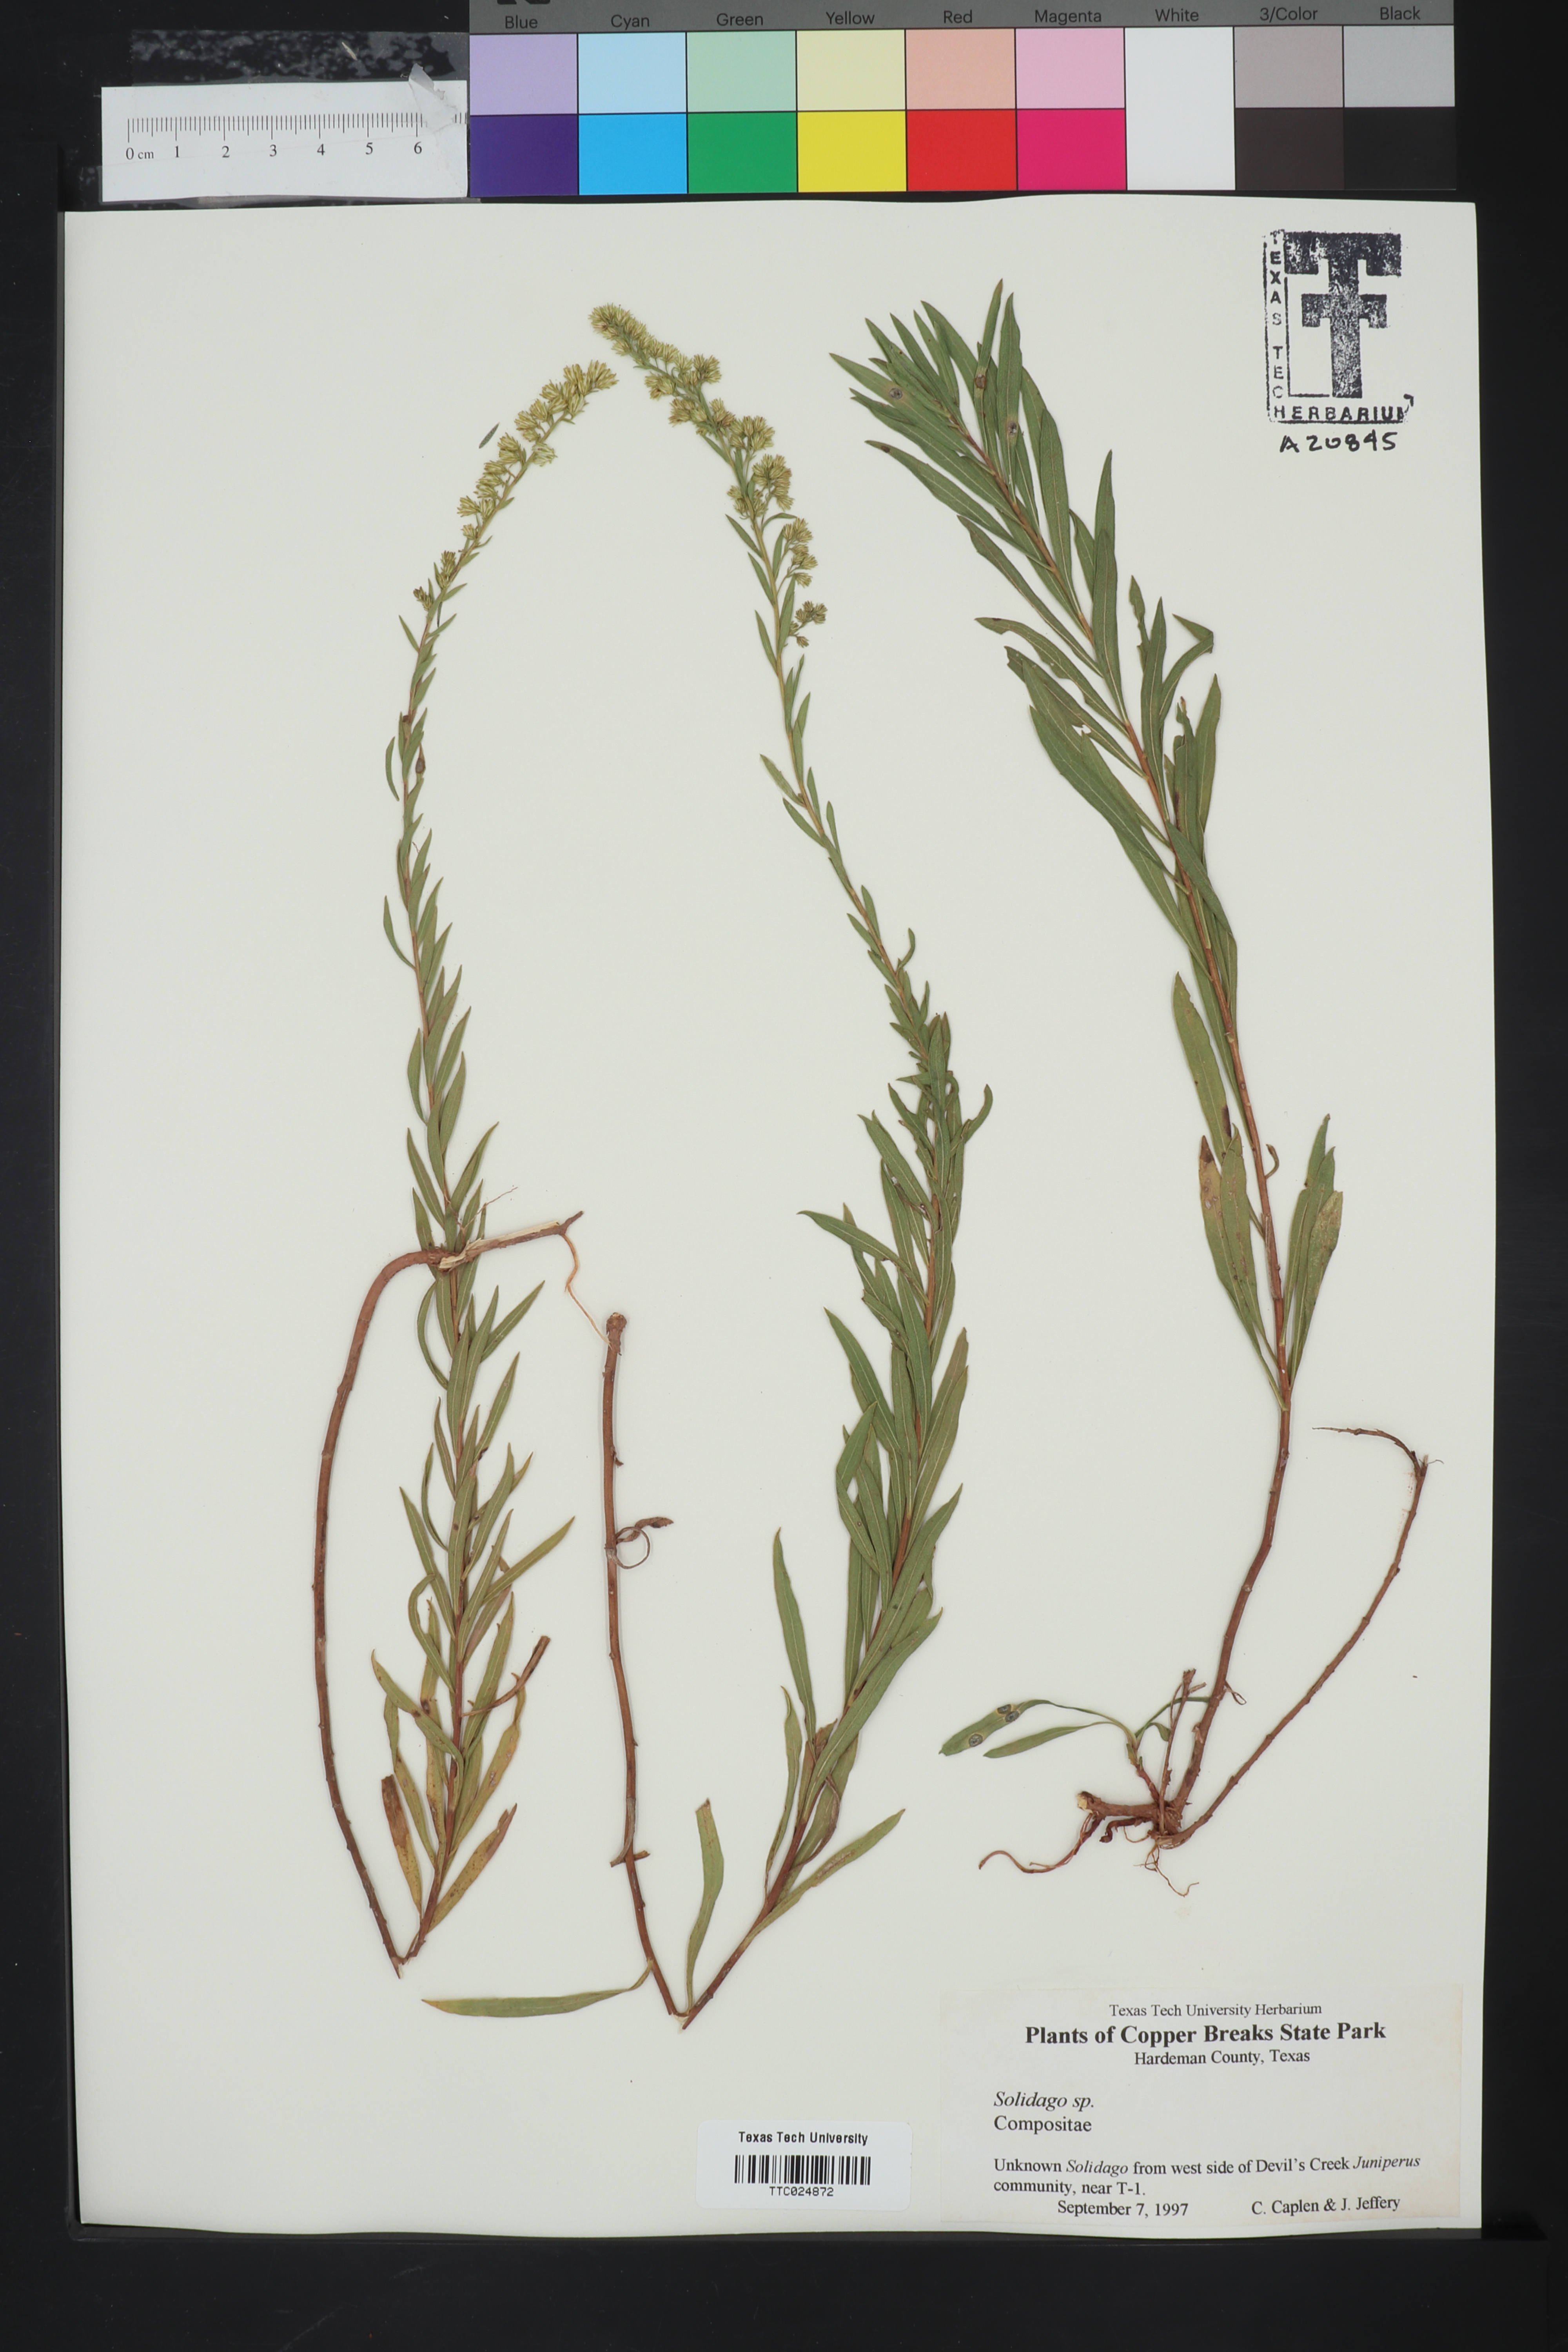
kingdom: Plantae
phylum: Tracheophyta
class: Magnoliopsida
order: Asterales
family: Asteraceae
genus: Solidago
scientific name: Solidago
